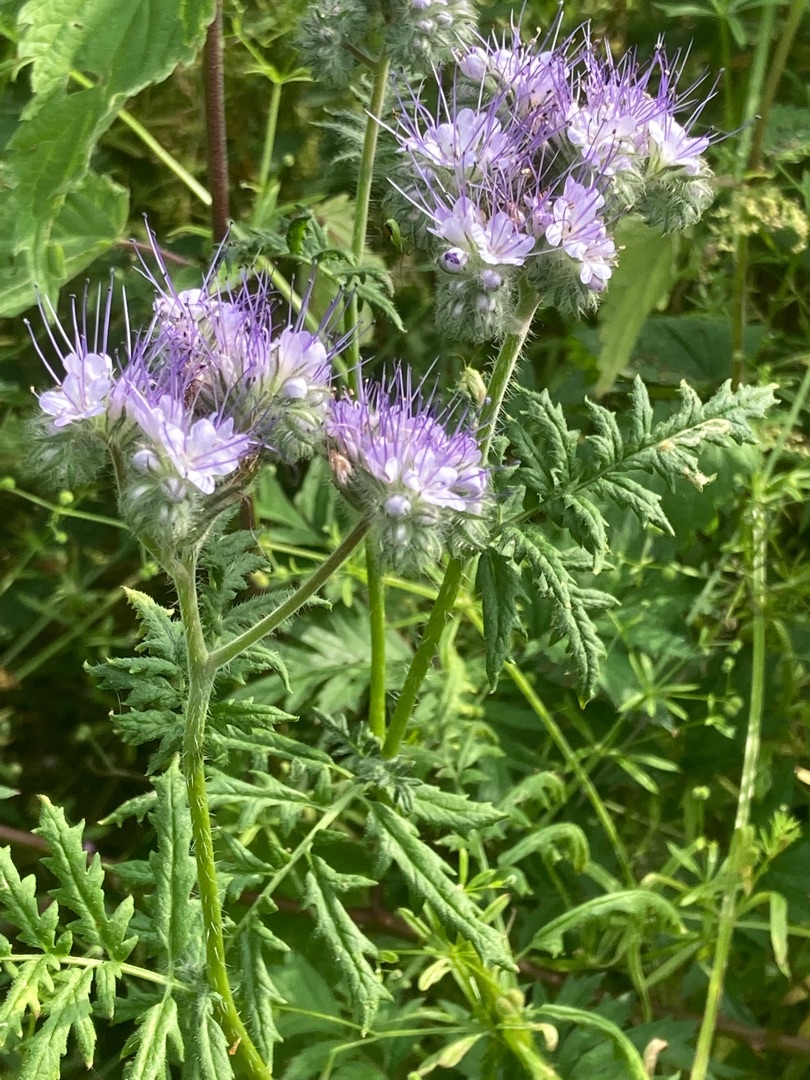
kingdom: Plantae
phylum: Tracheophyta
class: Magnoliopsida
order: Boraginales
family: Hydrophyllaceae
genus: Phacelia
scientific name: Phacelia tanacetifolia
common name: Honningurt
